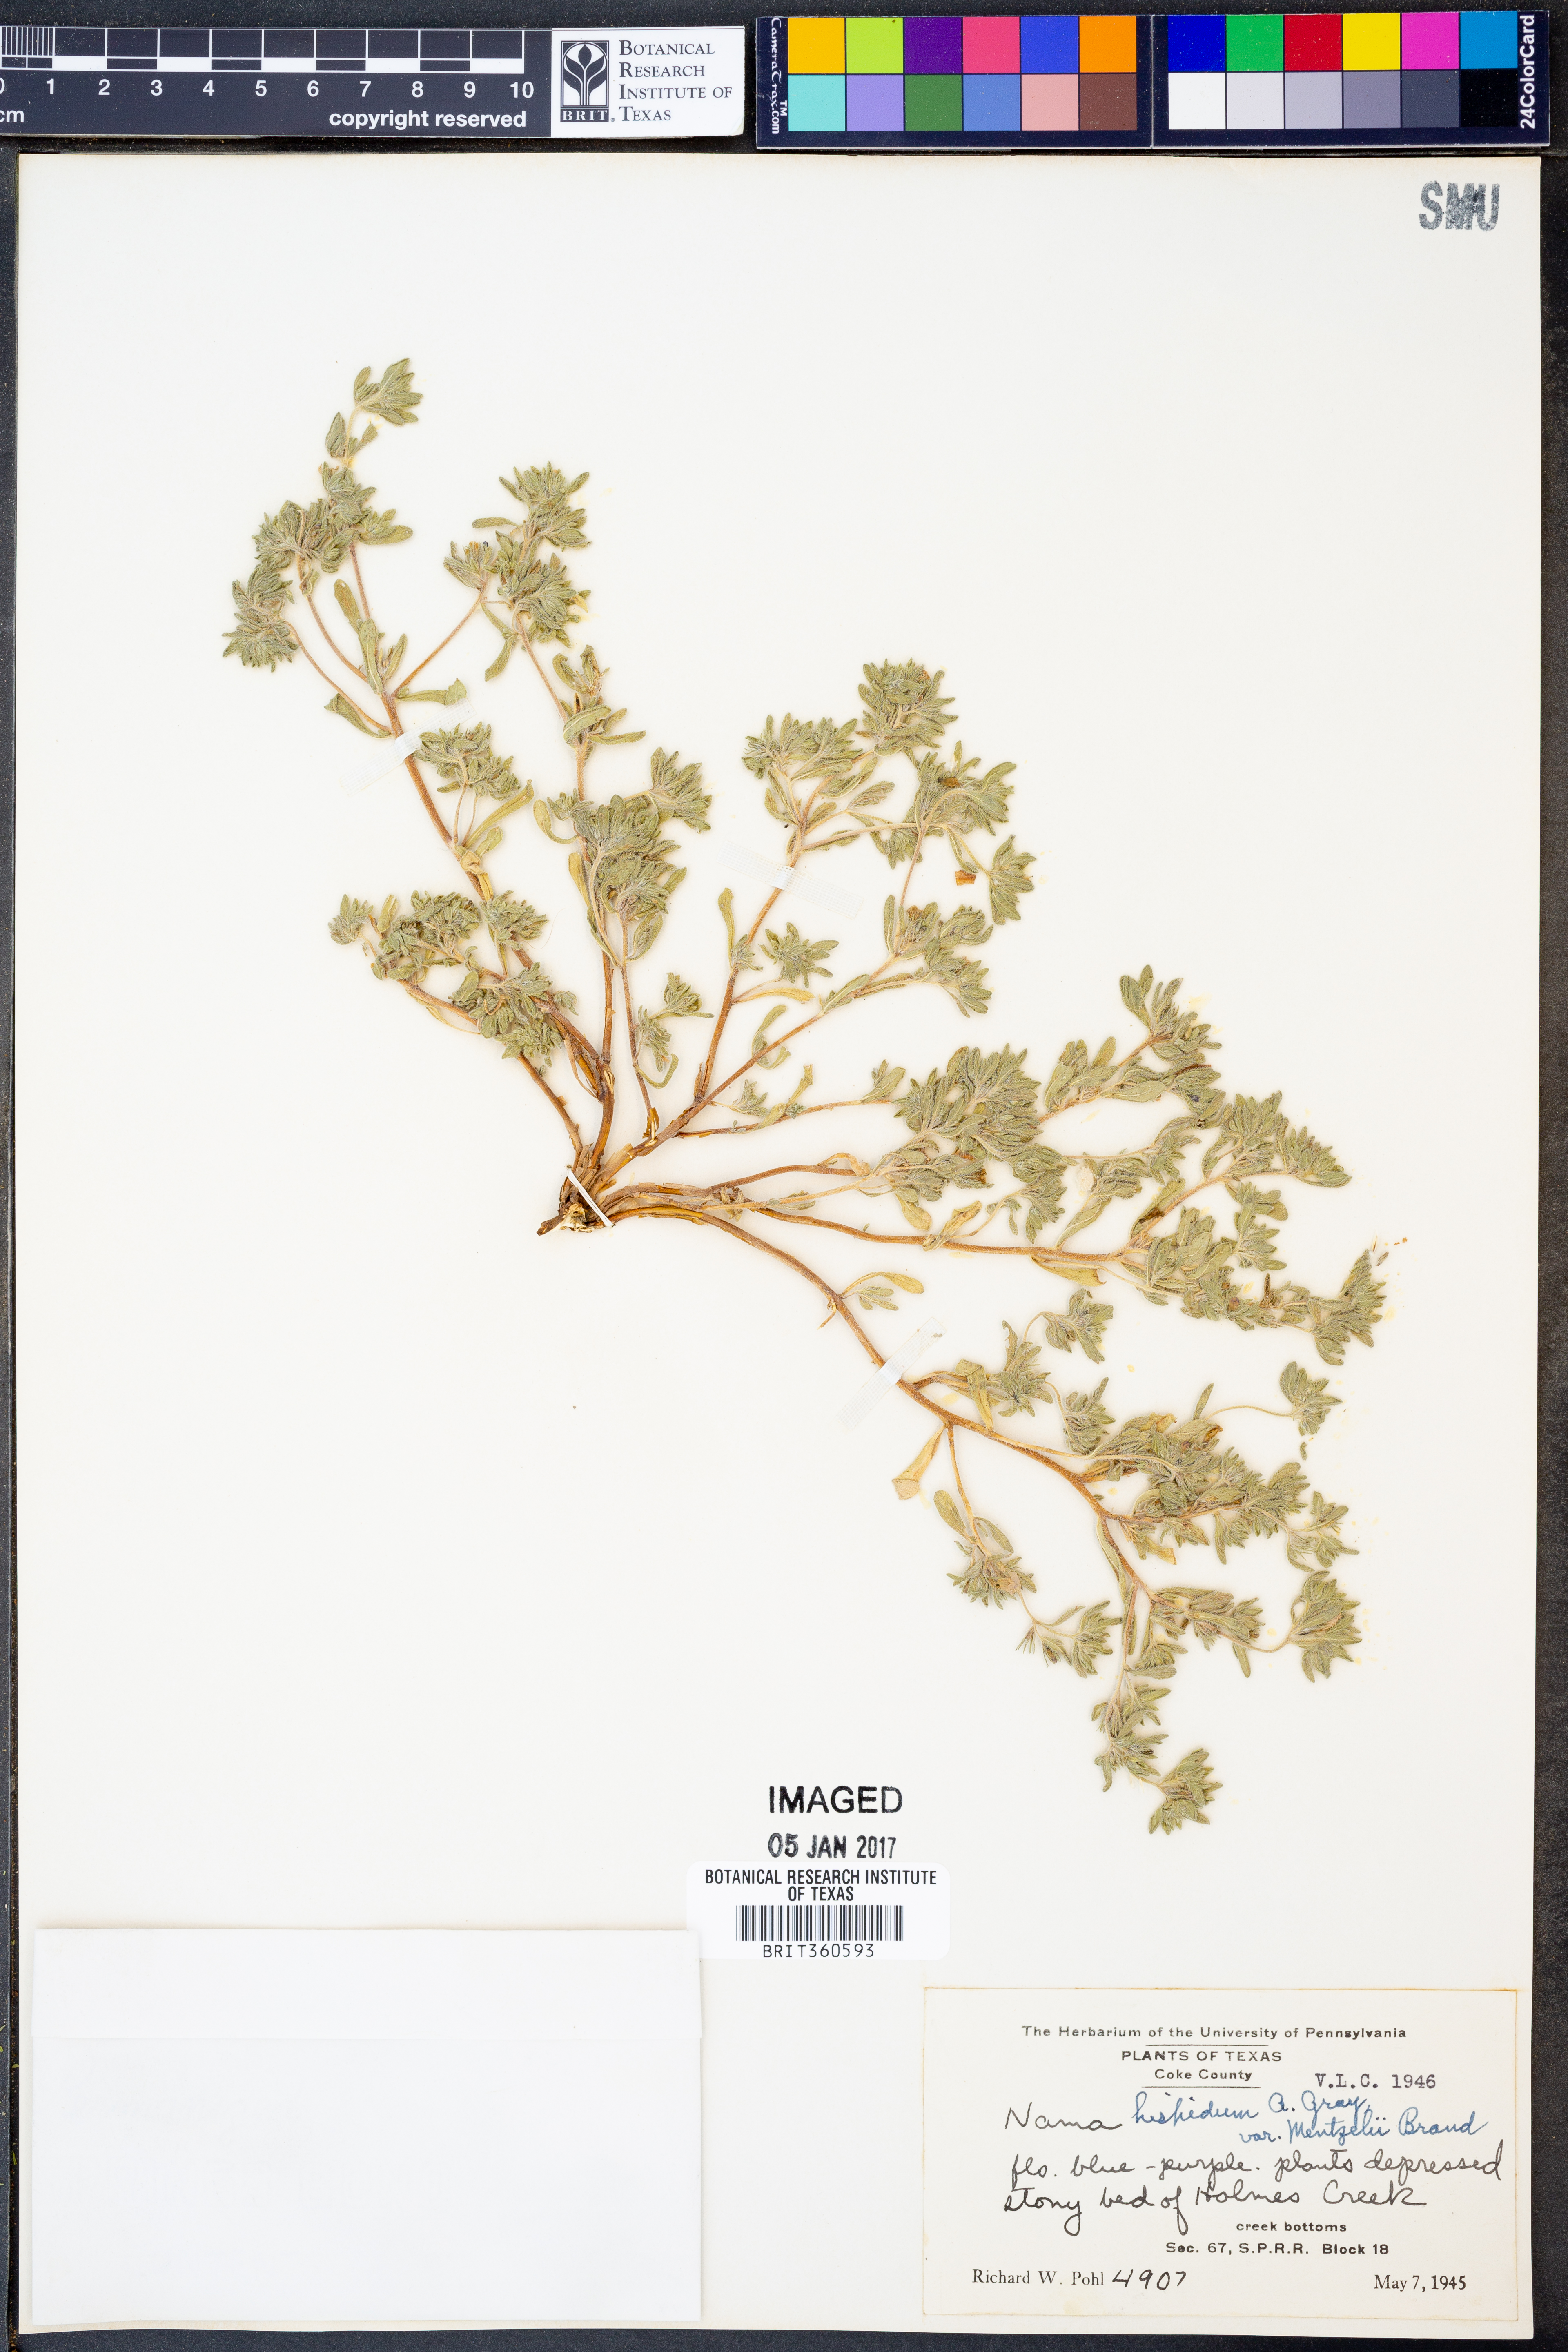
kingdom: Plantae
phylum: Tracheophyta
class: Magnoliopsida
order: Boraginales
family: Namaceae
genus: Nama
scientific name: Nama hispida
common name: Bristly nama
